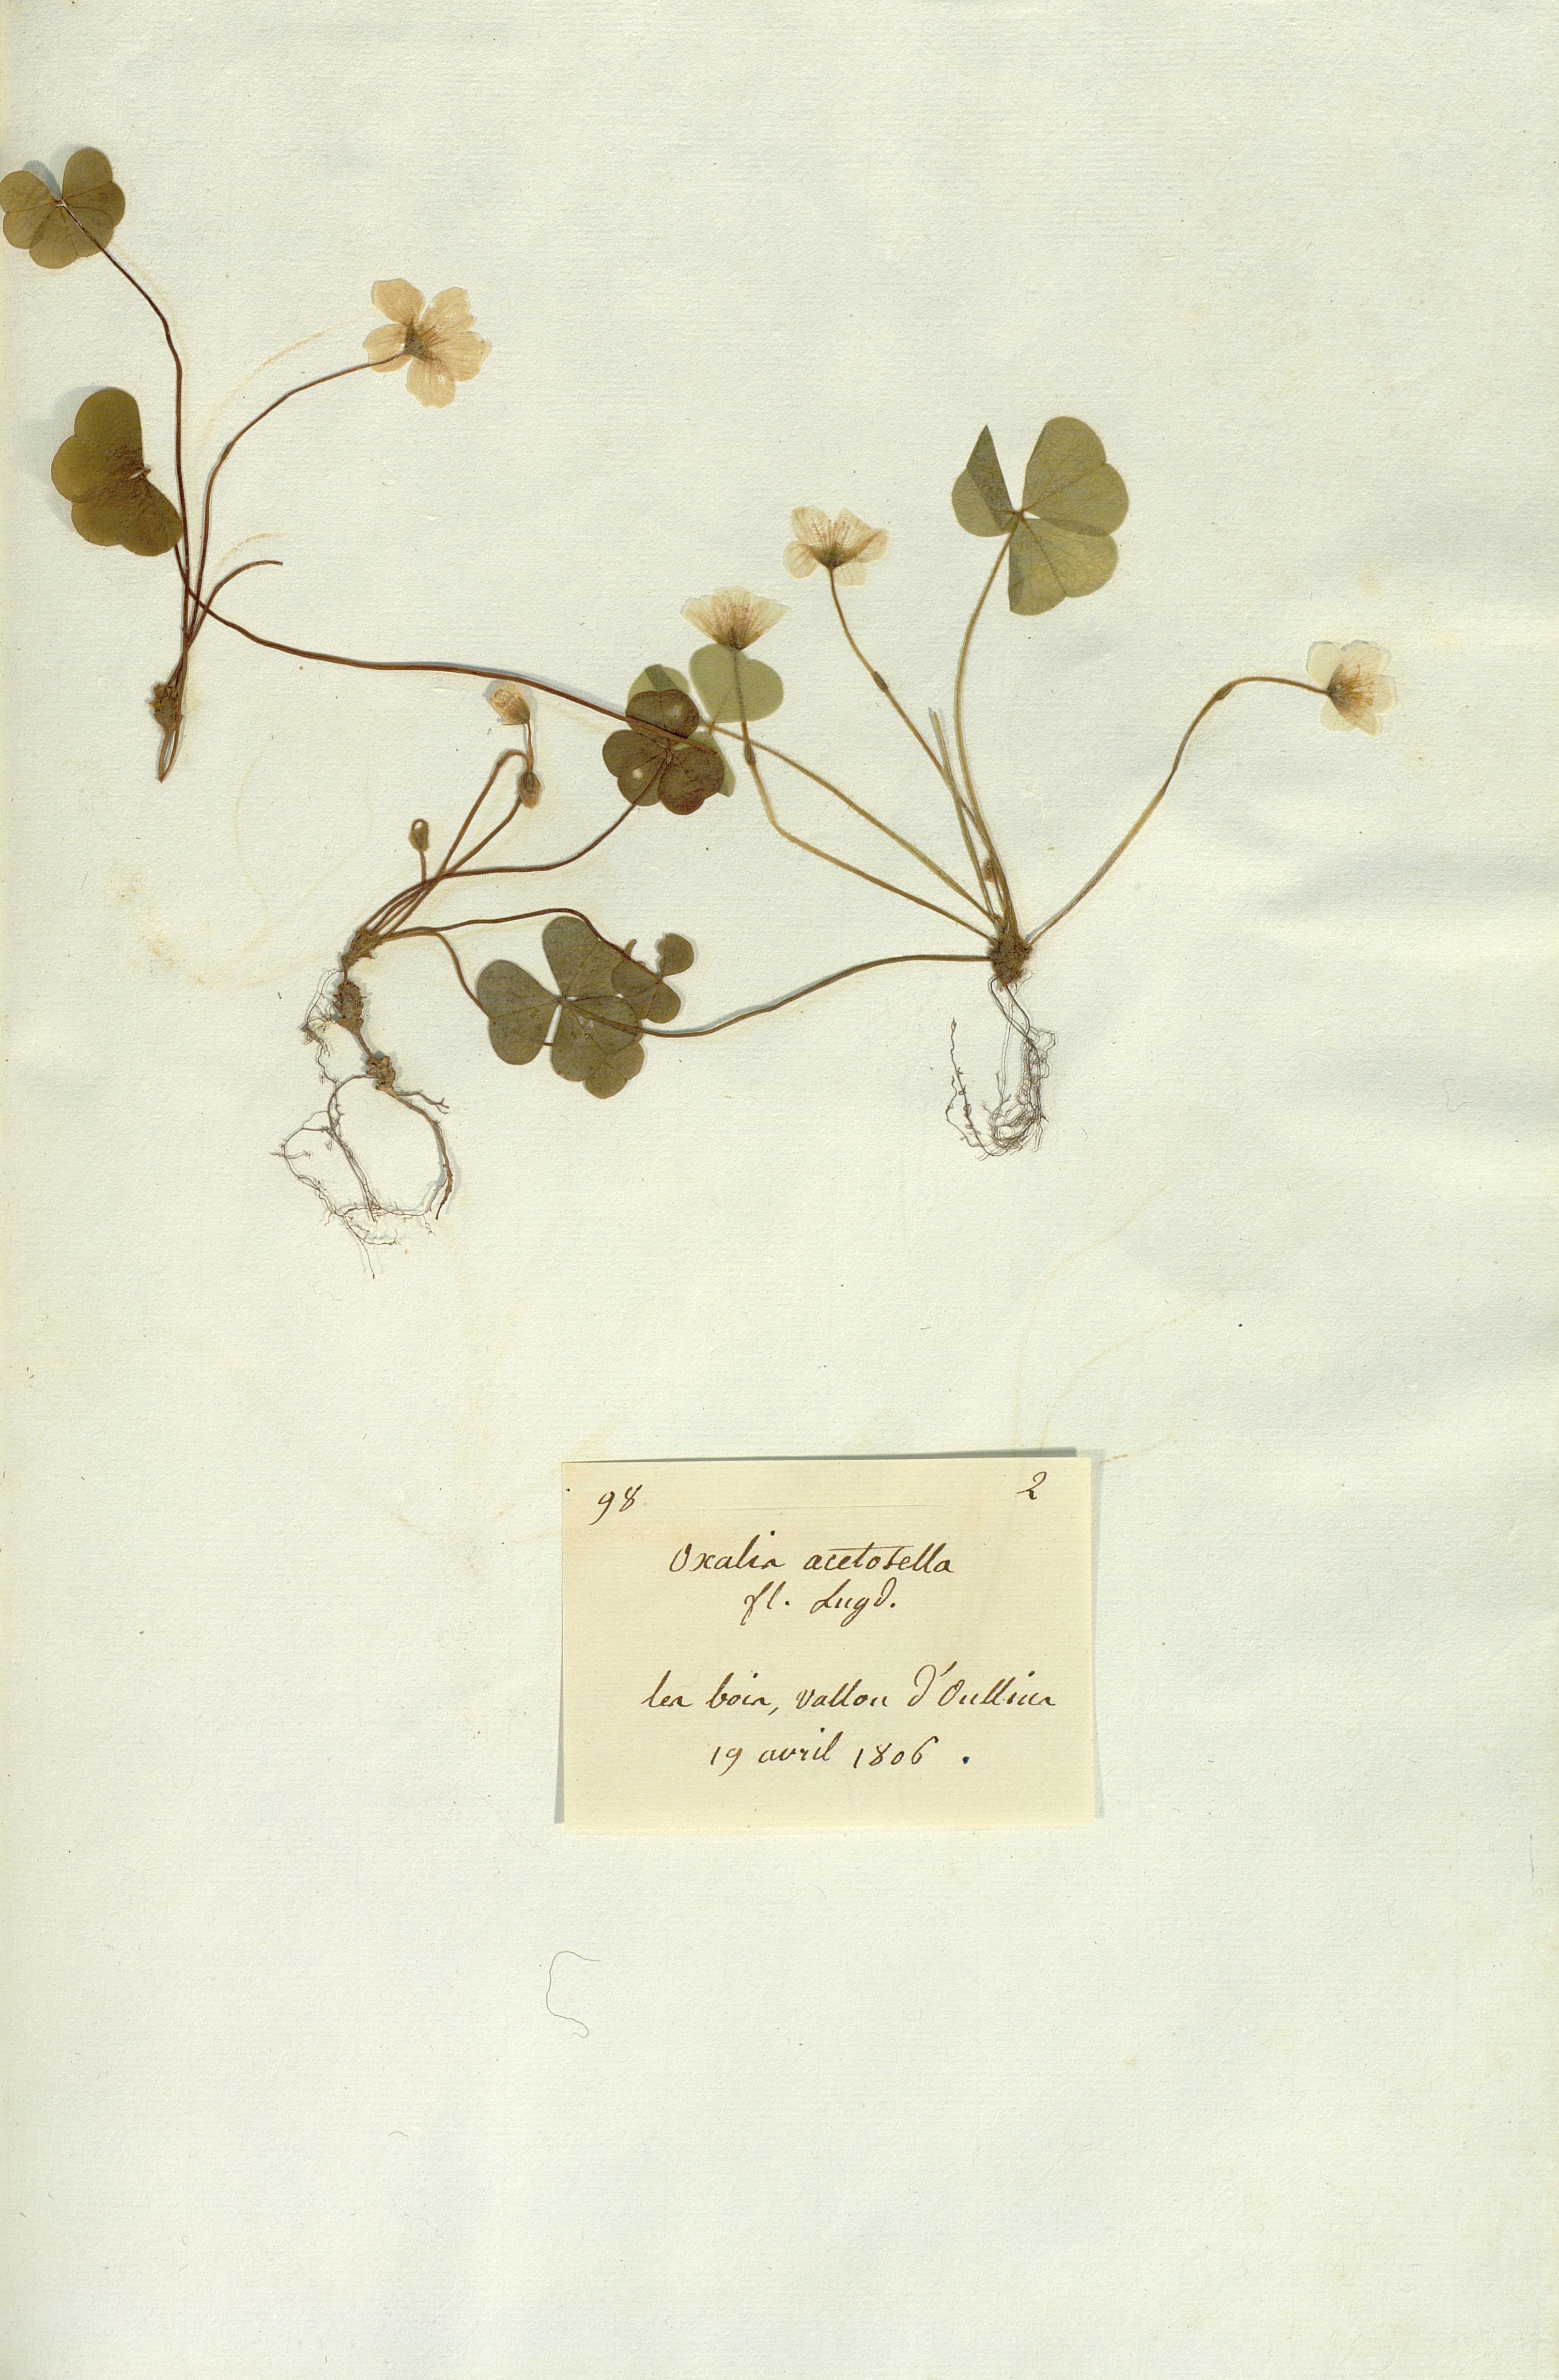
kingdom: Plantae
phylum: Tracheophyta
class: Magnoliopsida
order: Oxalidales
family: Oxalidaceae
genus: Oxalis
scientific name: Oxalis acetosella
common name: Wood-sorrel
